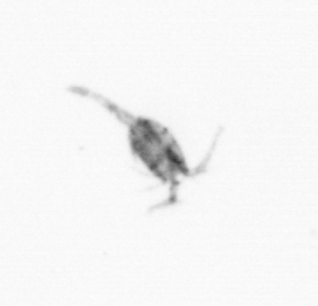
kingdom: Animalia
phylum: Arthropoda
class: Copepoda
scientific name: Copepoda
